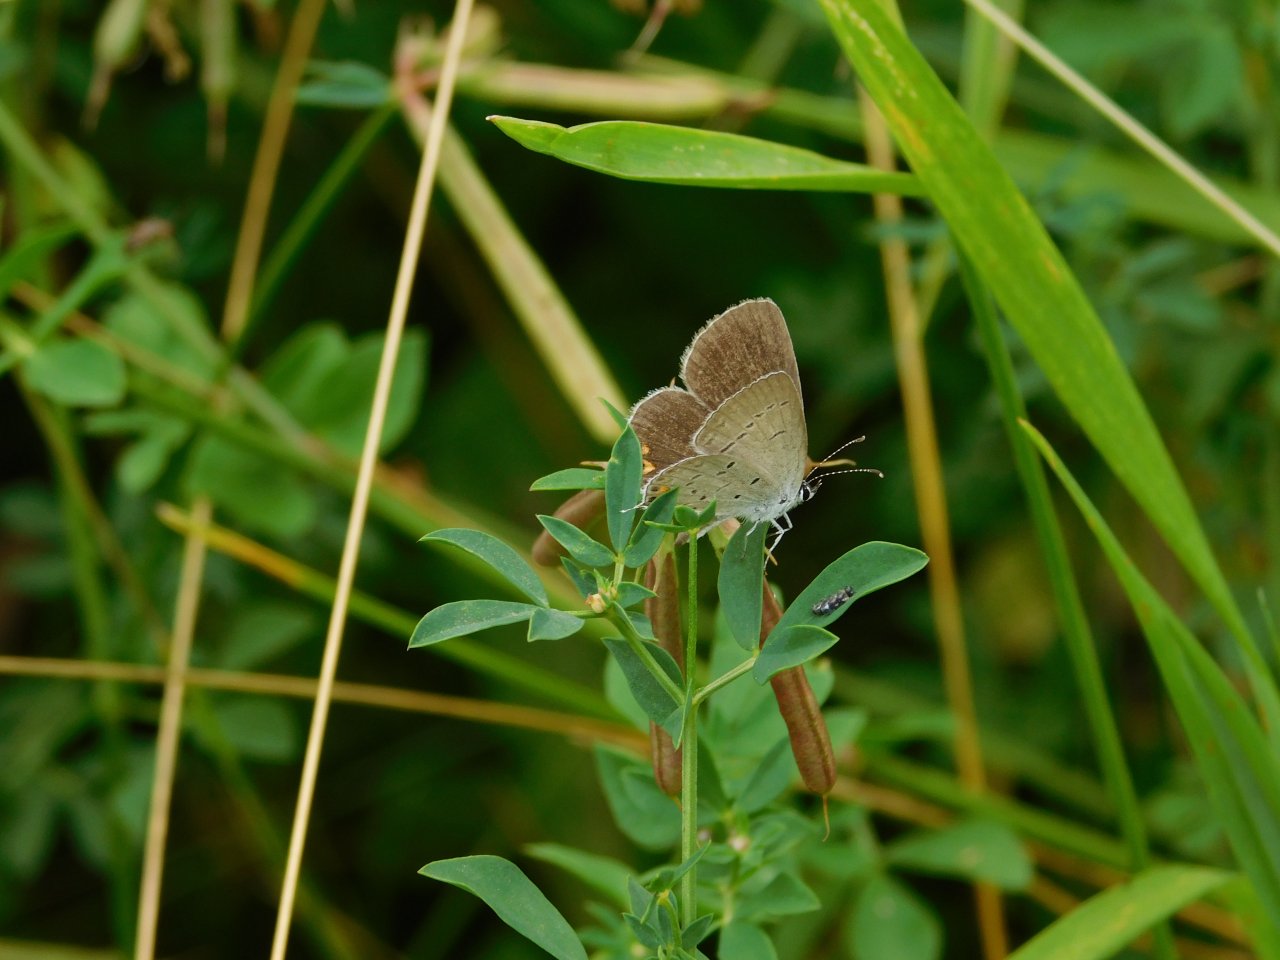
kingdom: Animalia
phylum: Arthropoda
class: Insecta
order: Lepidoptera
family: Lycaenidae
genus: Elkalyce
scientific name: Elkalyce comyntas
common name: Eastern Tailed-Blue
